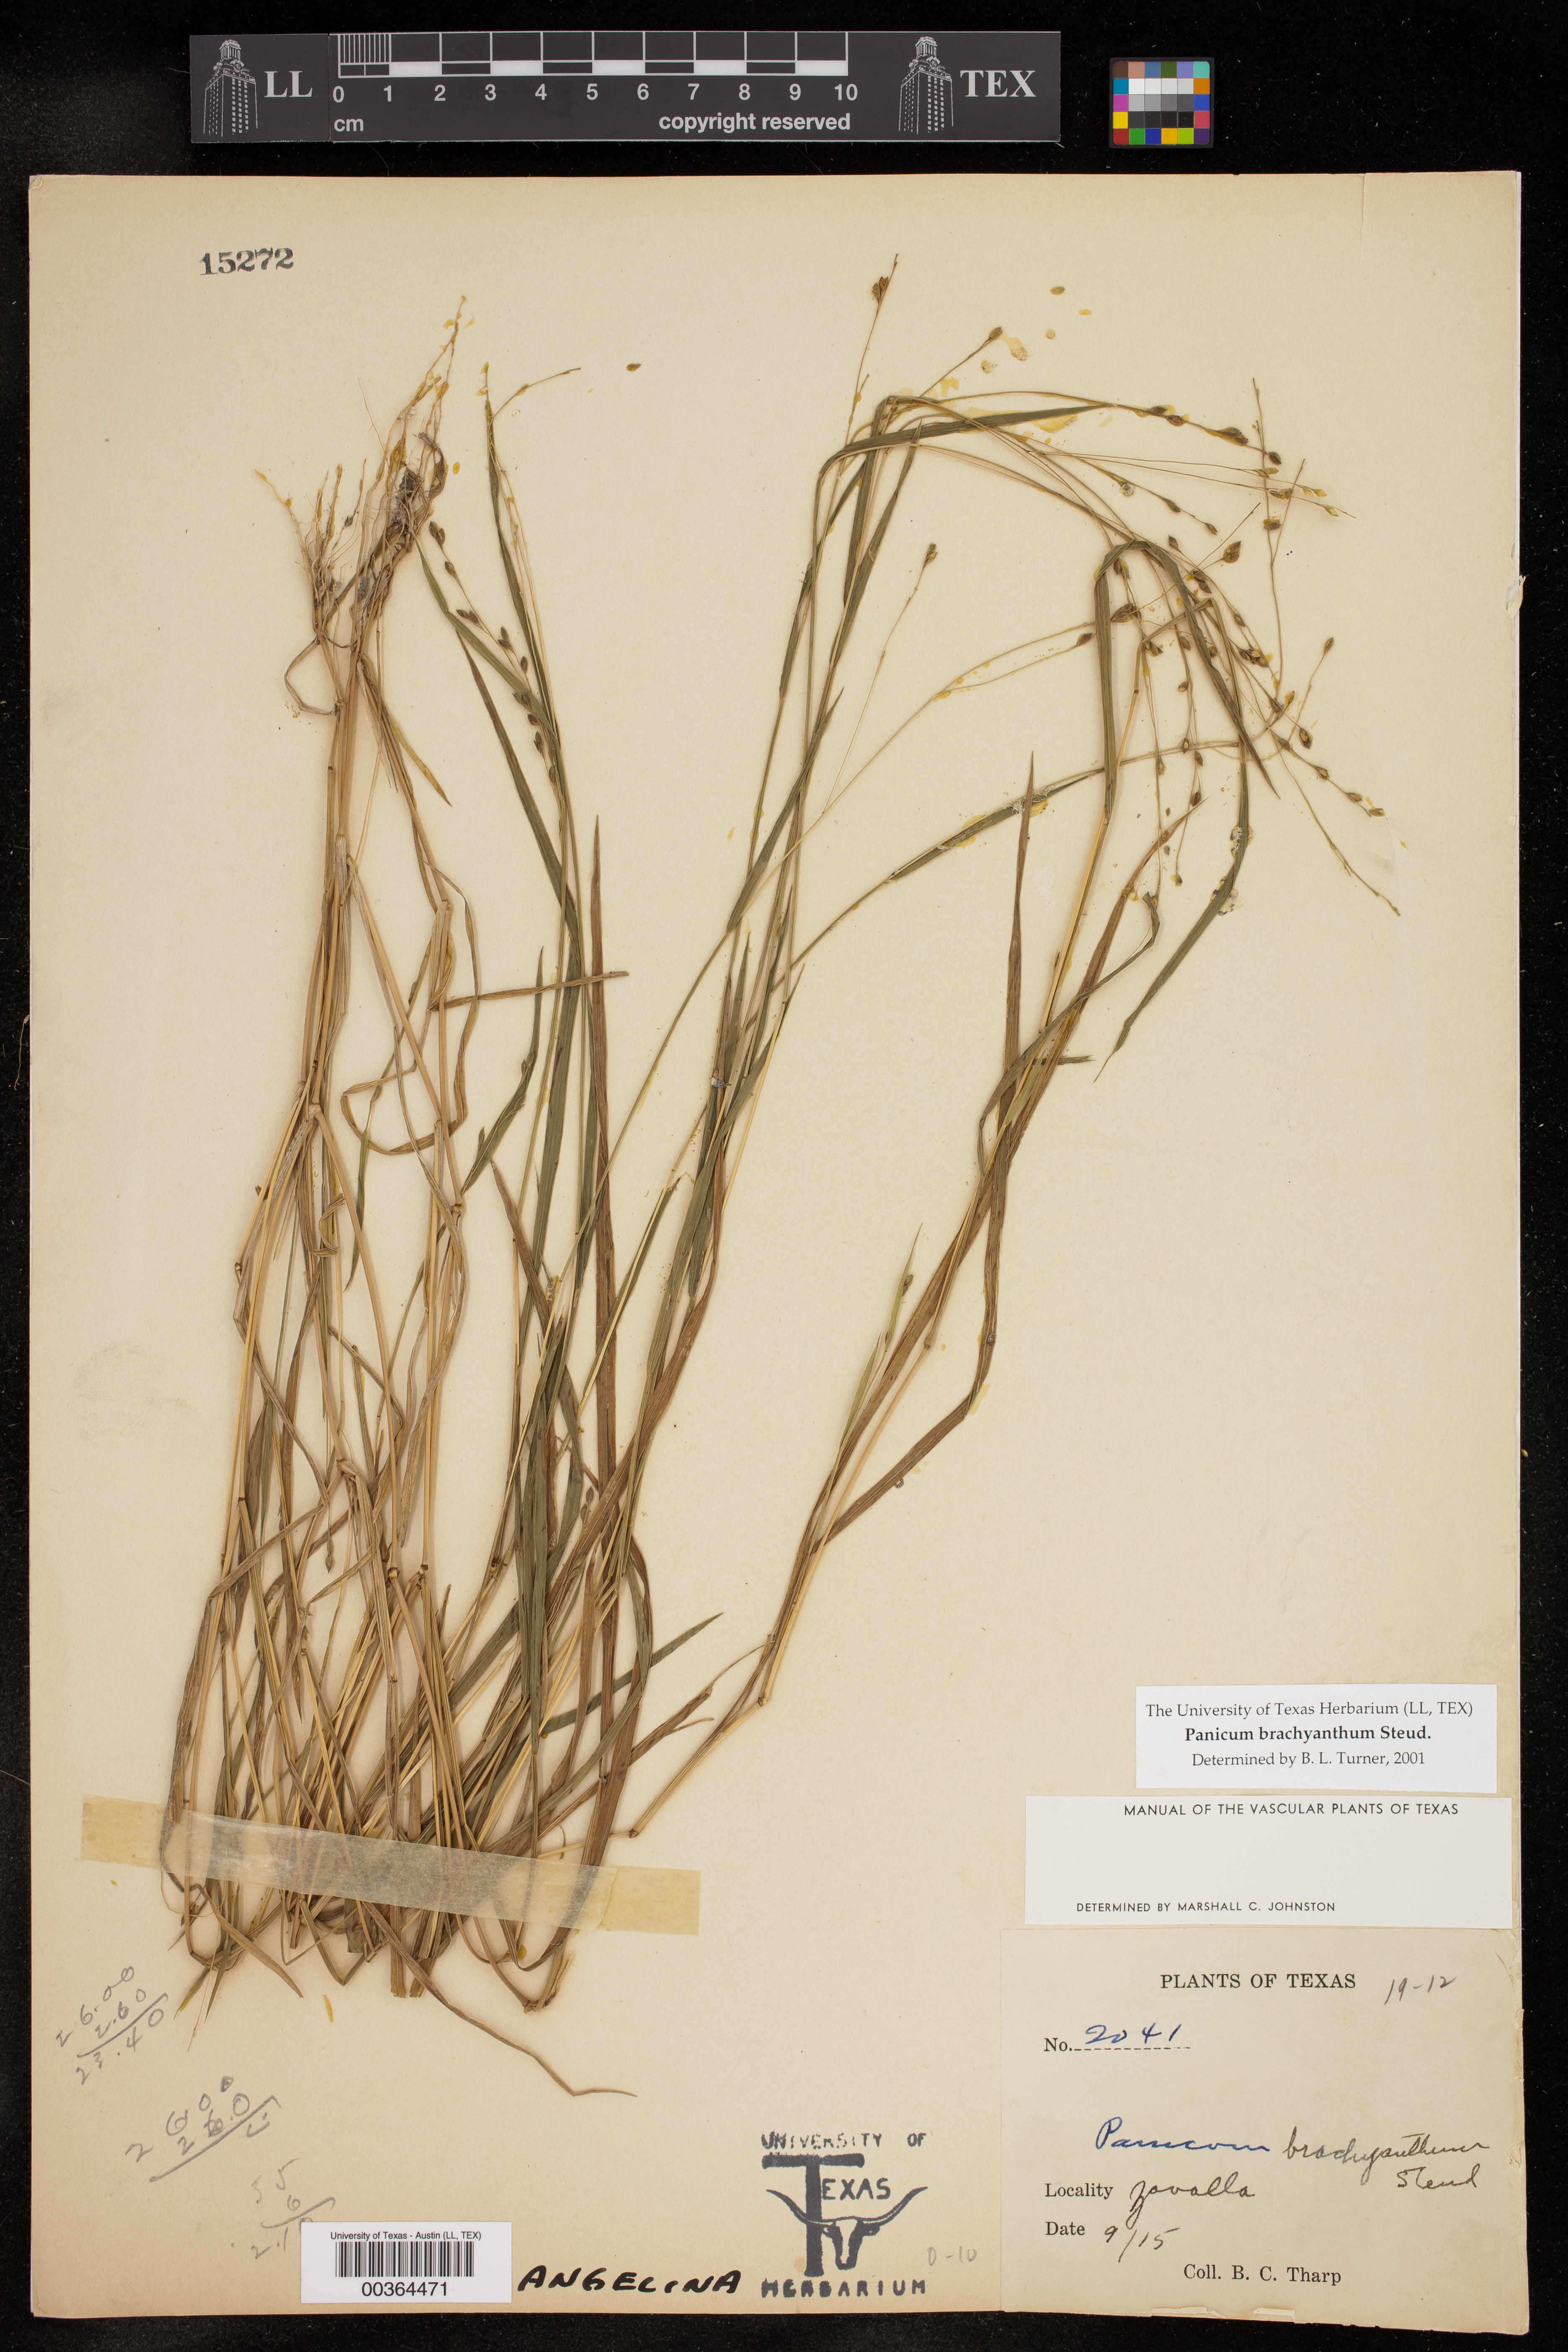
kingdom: Plantae
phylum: Tracheophyta
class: Liliopsida
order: Poales
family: Poaceae
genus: Kellochloa
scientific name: Kellochloa brachyantha
